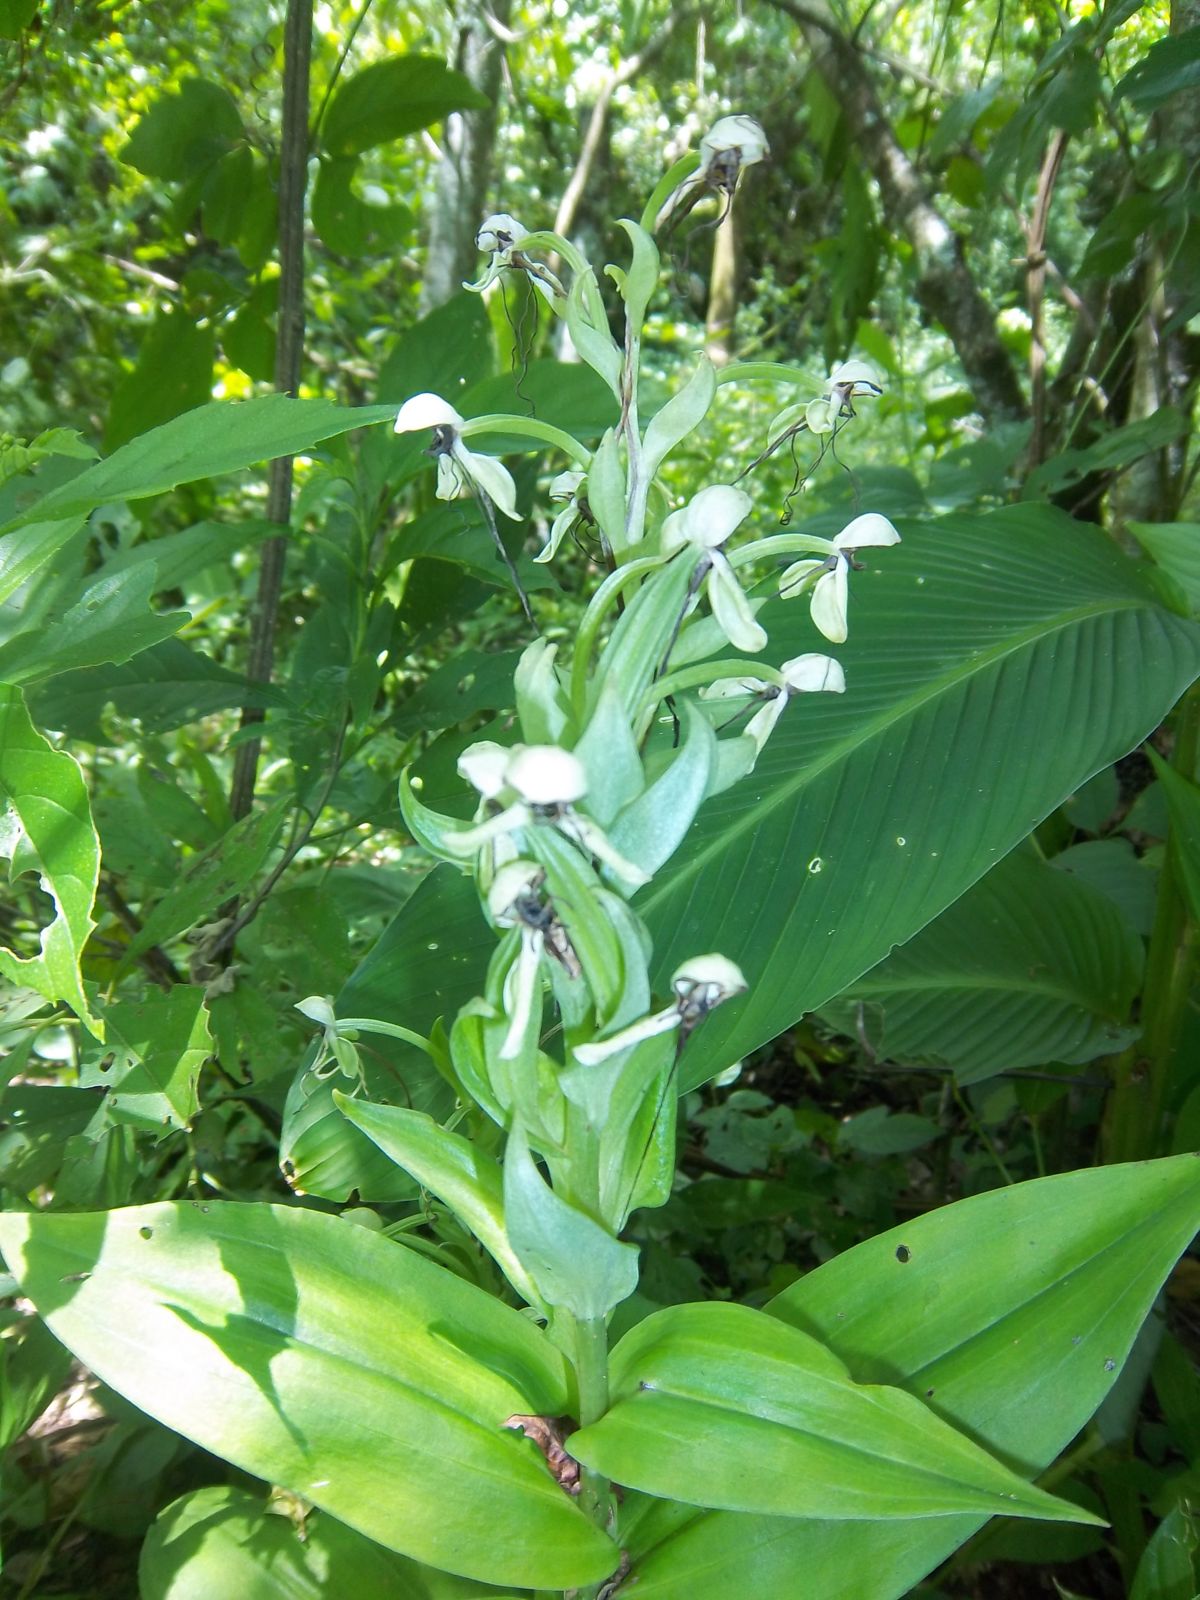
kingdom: Plantae
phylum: Tracheophyta
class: Liliopsida
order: Asparagales
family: Orchidaceae
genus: Habenaria
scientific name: Habenaria quinqueseta
